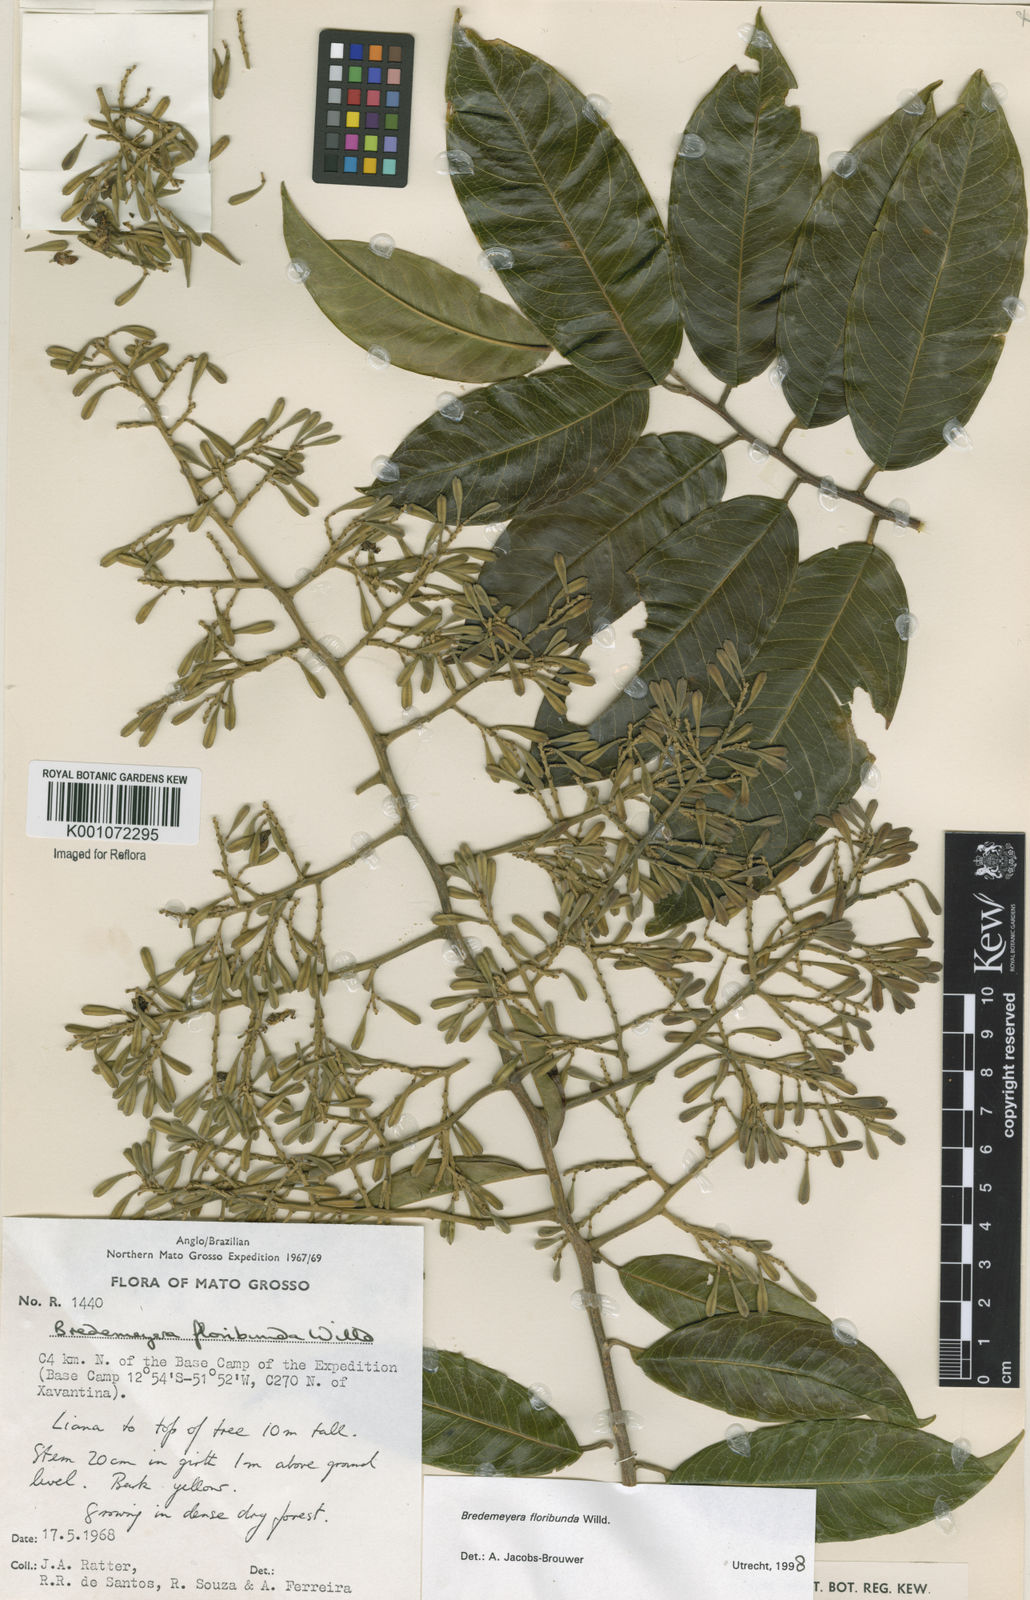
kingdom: Plantae
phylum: Tracheophyta
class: Magnoliopsida
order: Fabales
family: Polygalaceae
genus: Bredemeyera
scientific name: Bredemeyera floribunda
